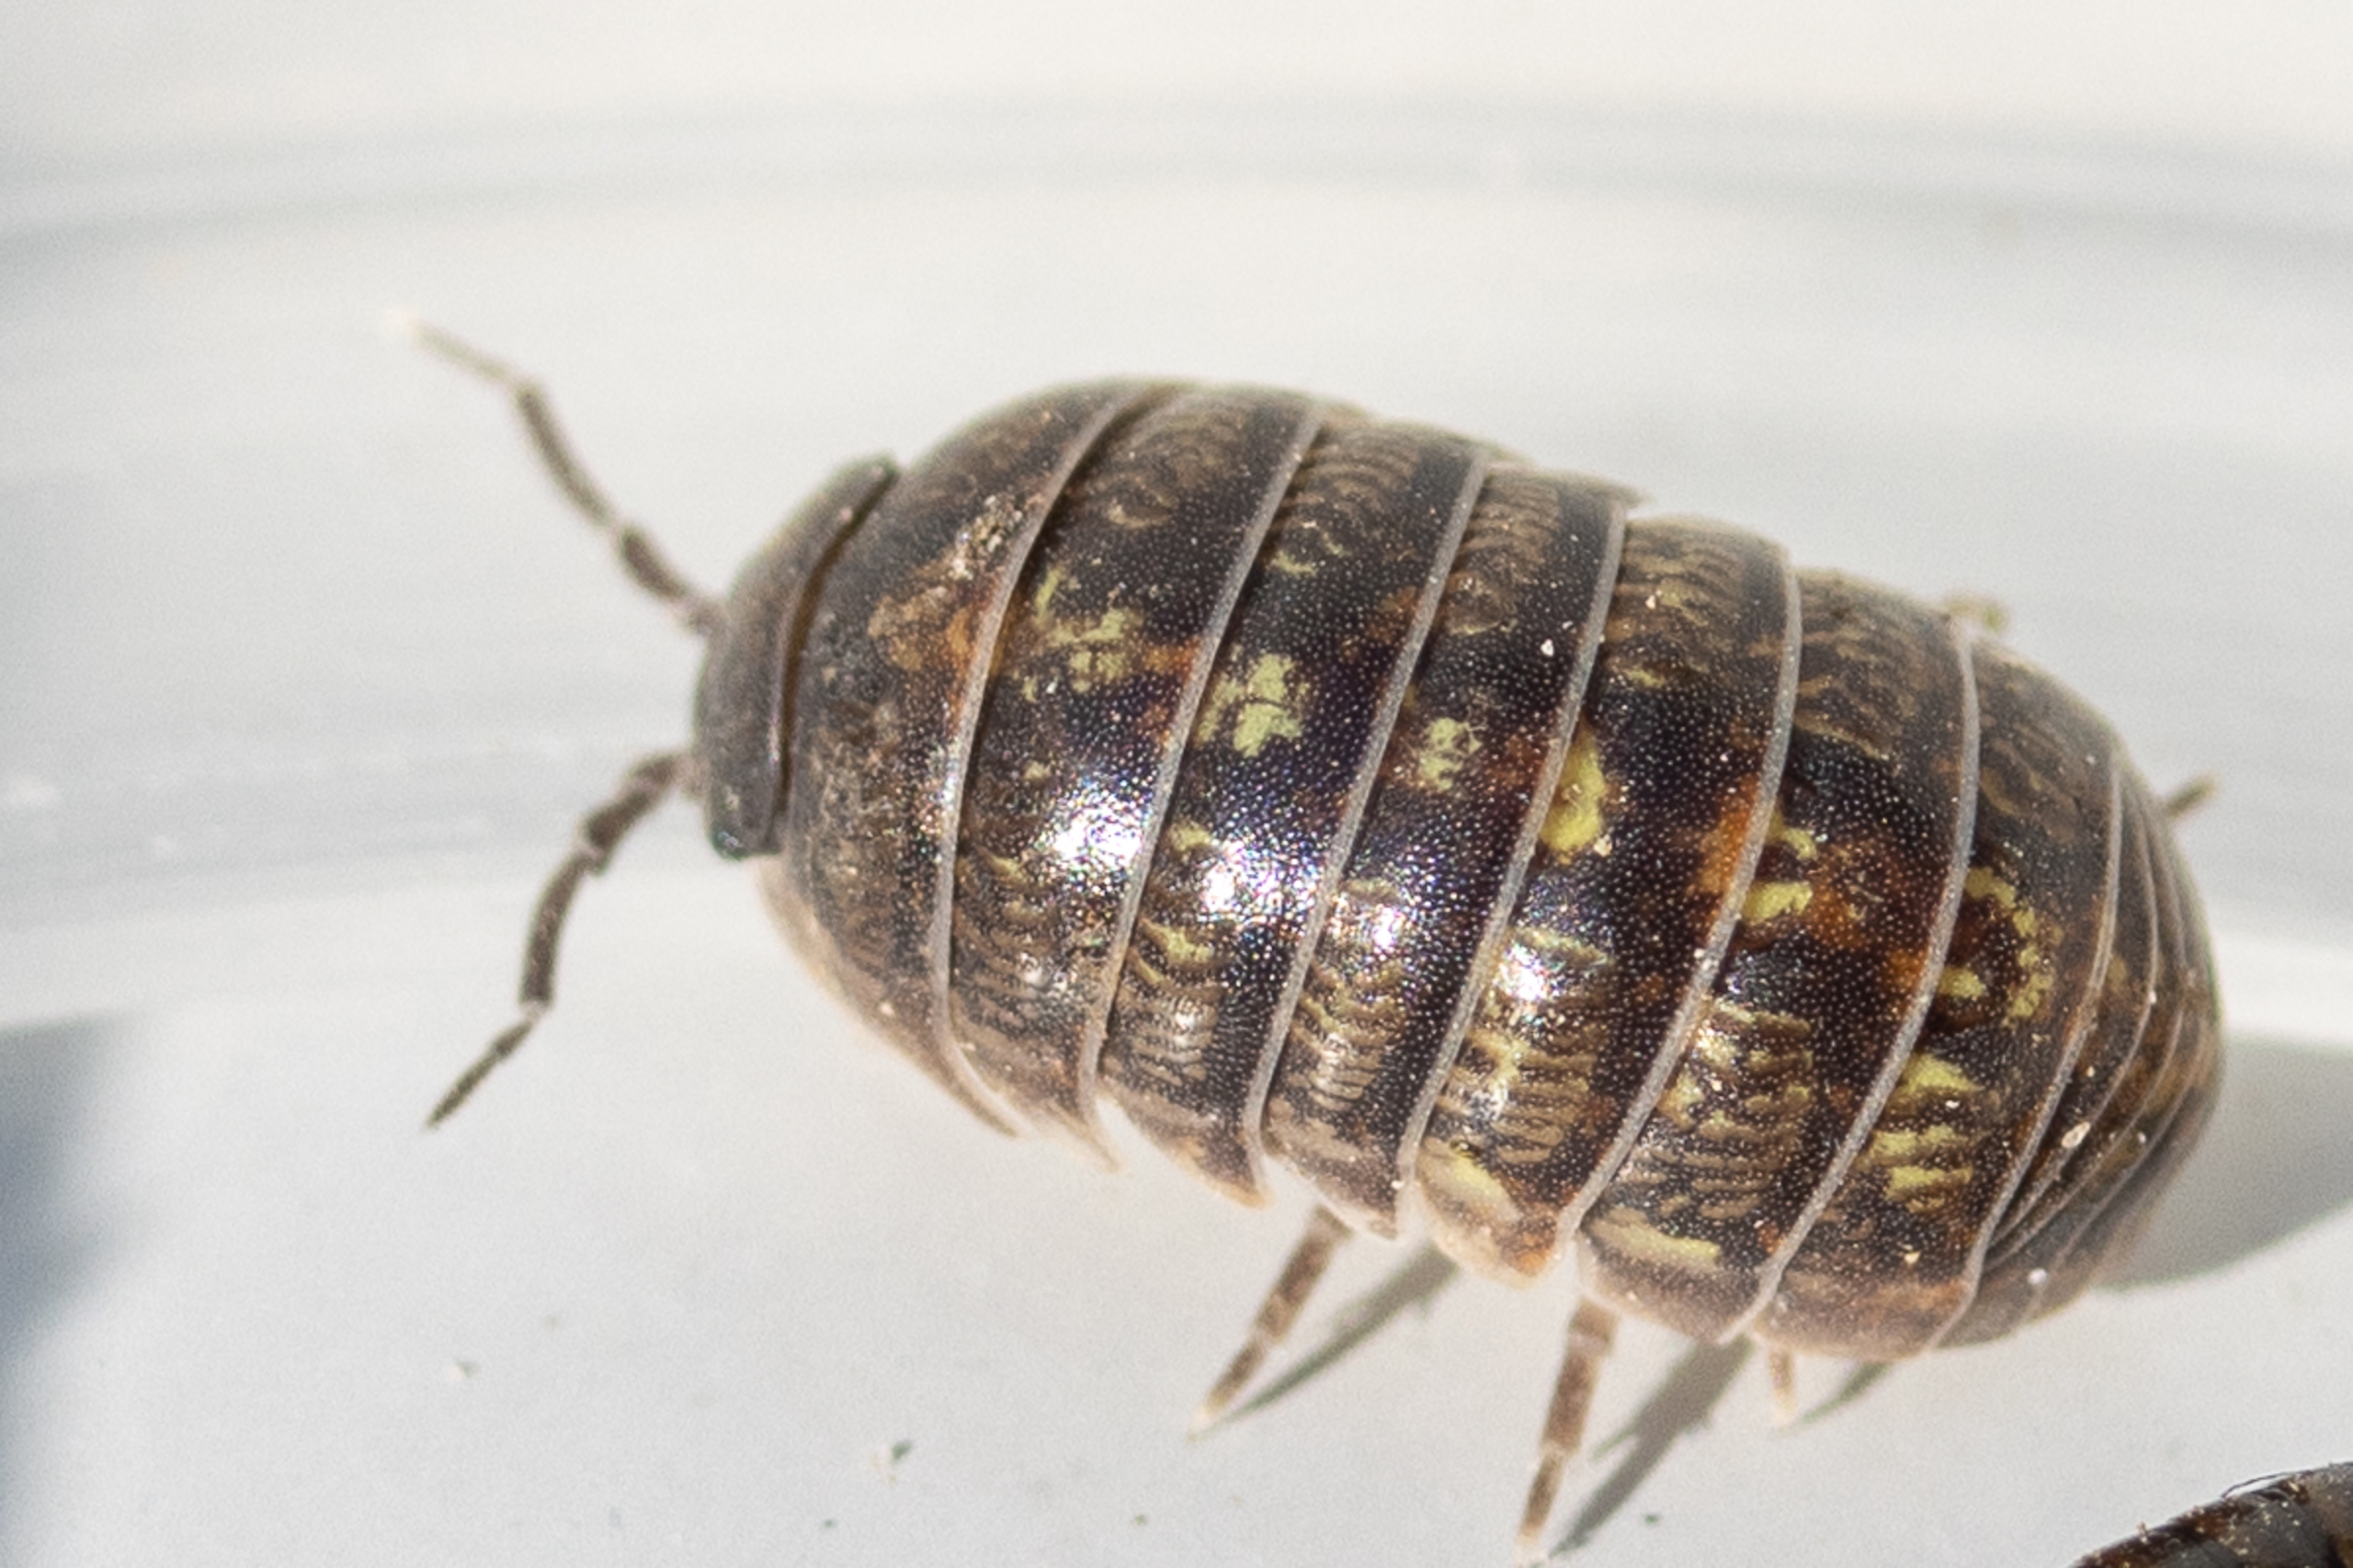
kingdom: Animalia
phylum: Arthropoda
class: Malacostraca
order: Isopoda
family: Armadillidiidae
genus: Armadillidium
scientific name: Armadillidium vulgare
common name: Almindelig kuglebænkebider
